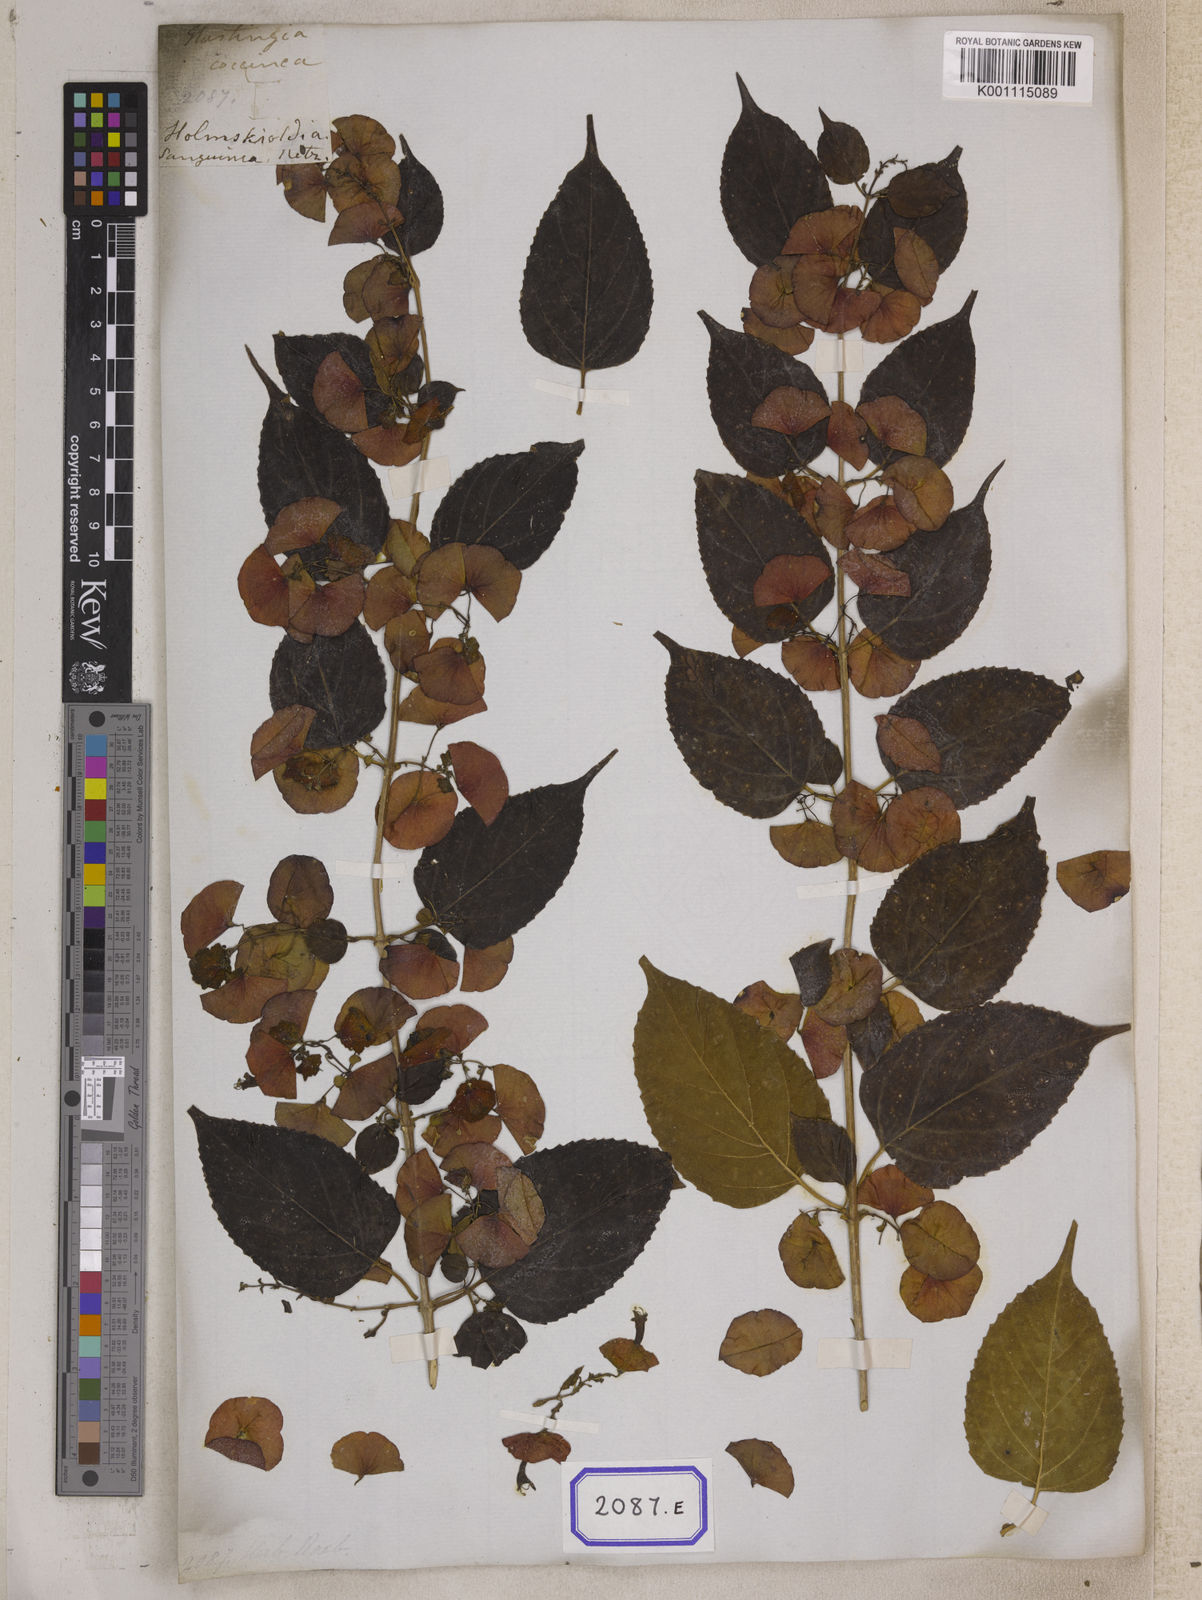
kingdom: Plantae
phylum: Tracheophyta
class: Magnoliopsida
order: Lamiales
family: Lamiaceae
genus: Holmskioldia
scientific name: Holmskioldia sanguinea
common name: Chinese hatplant
